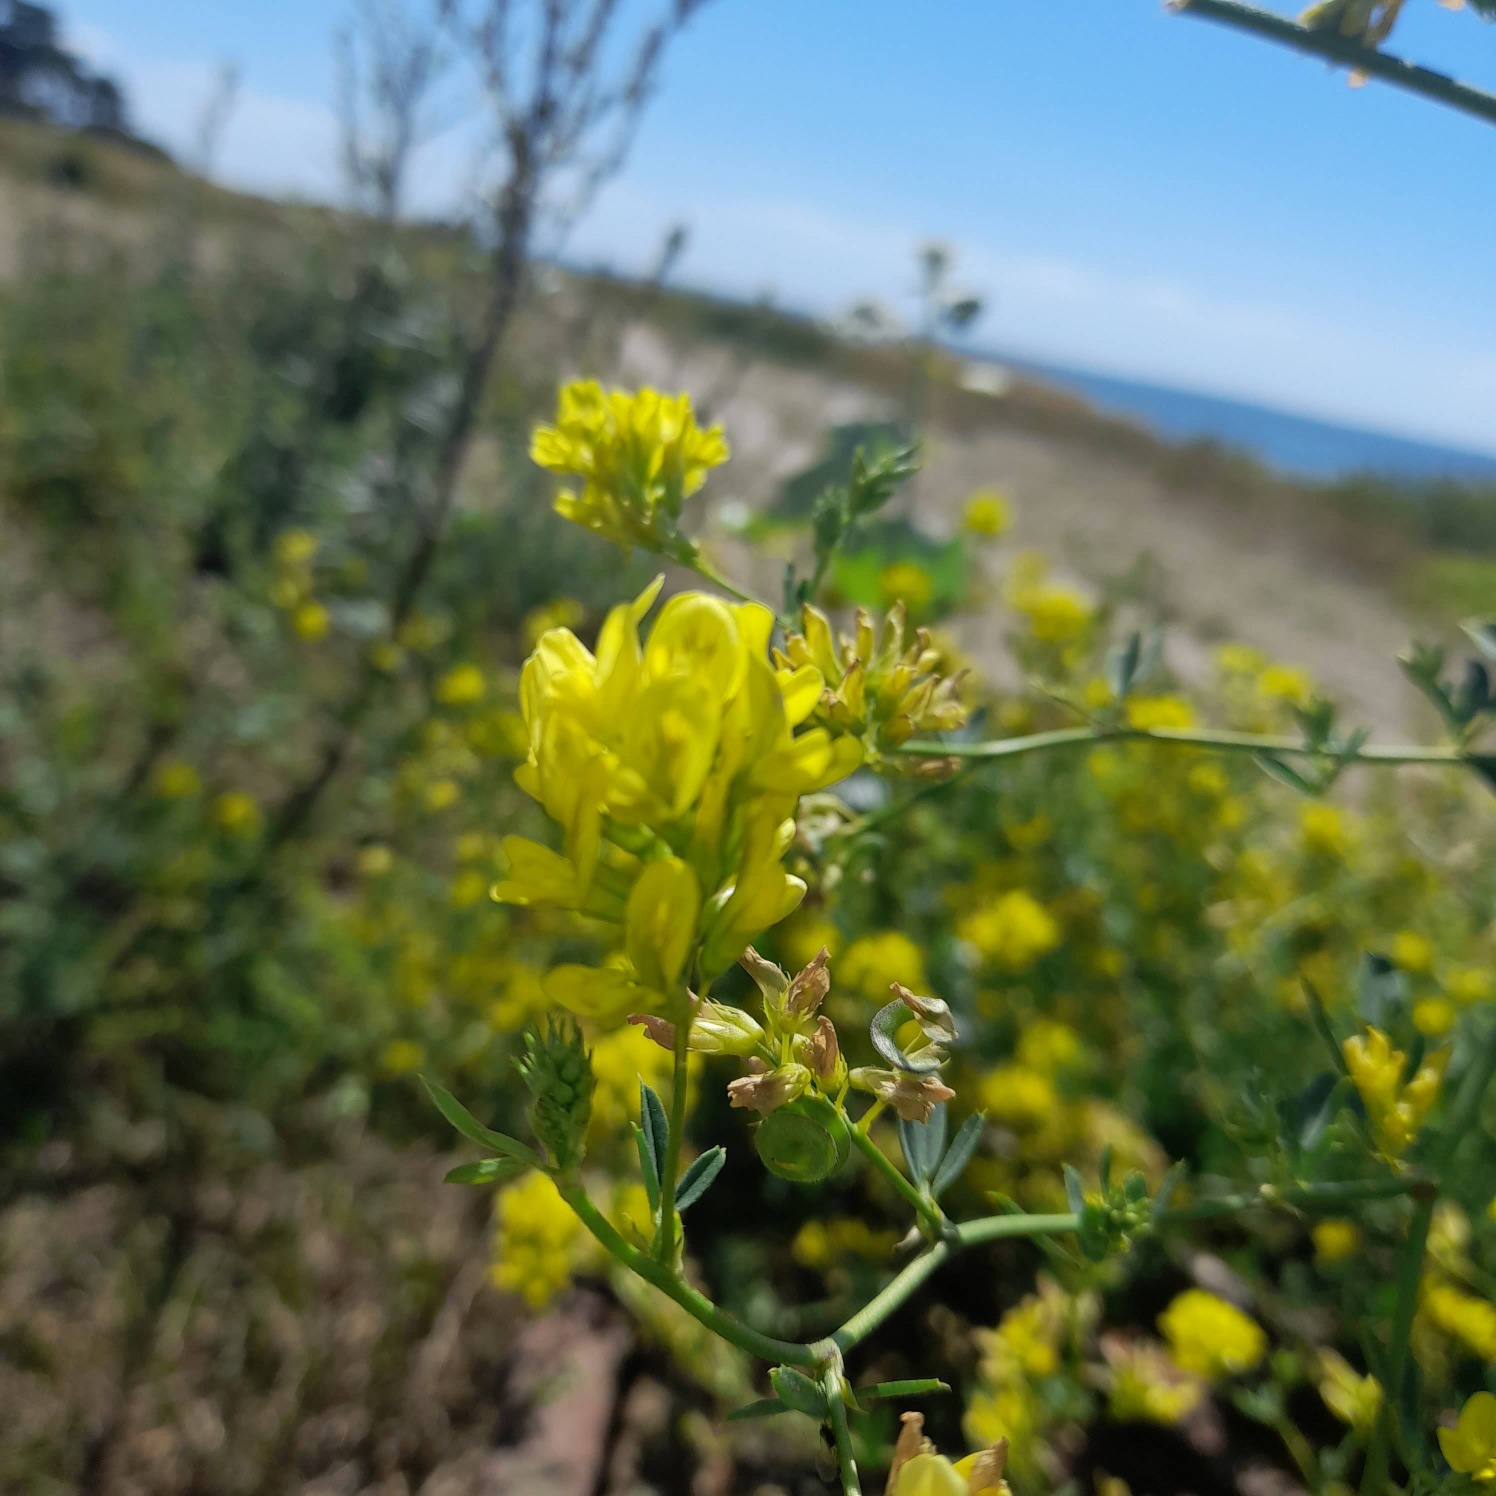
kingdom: Plantae
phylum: Tracheophyta
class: Magnoliopsida
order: Fabales
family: Fabaceae
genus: Medicago
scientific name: Medicago falcata
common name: Segl-sneglebælg
